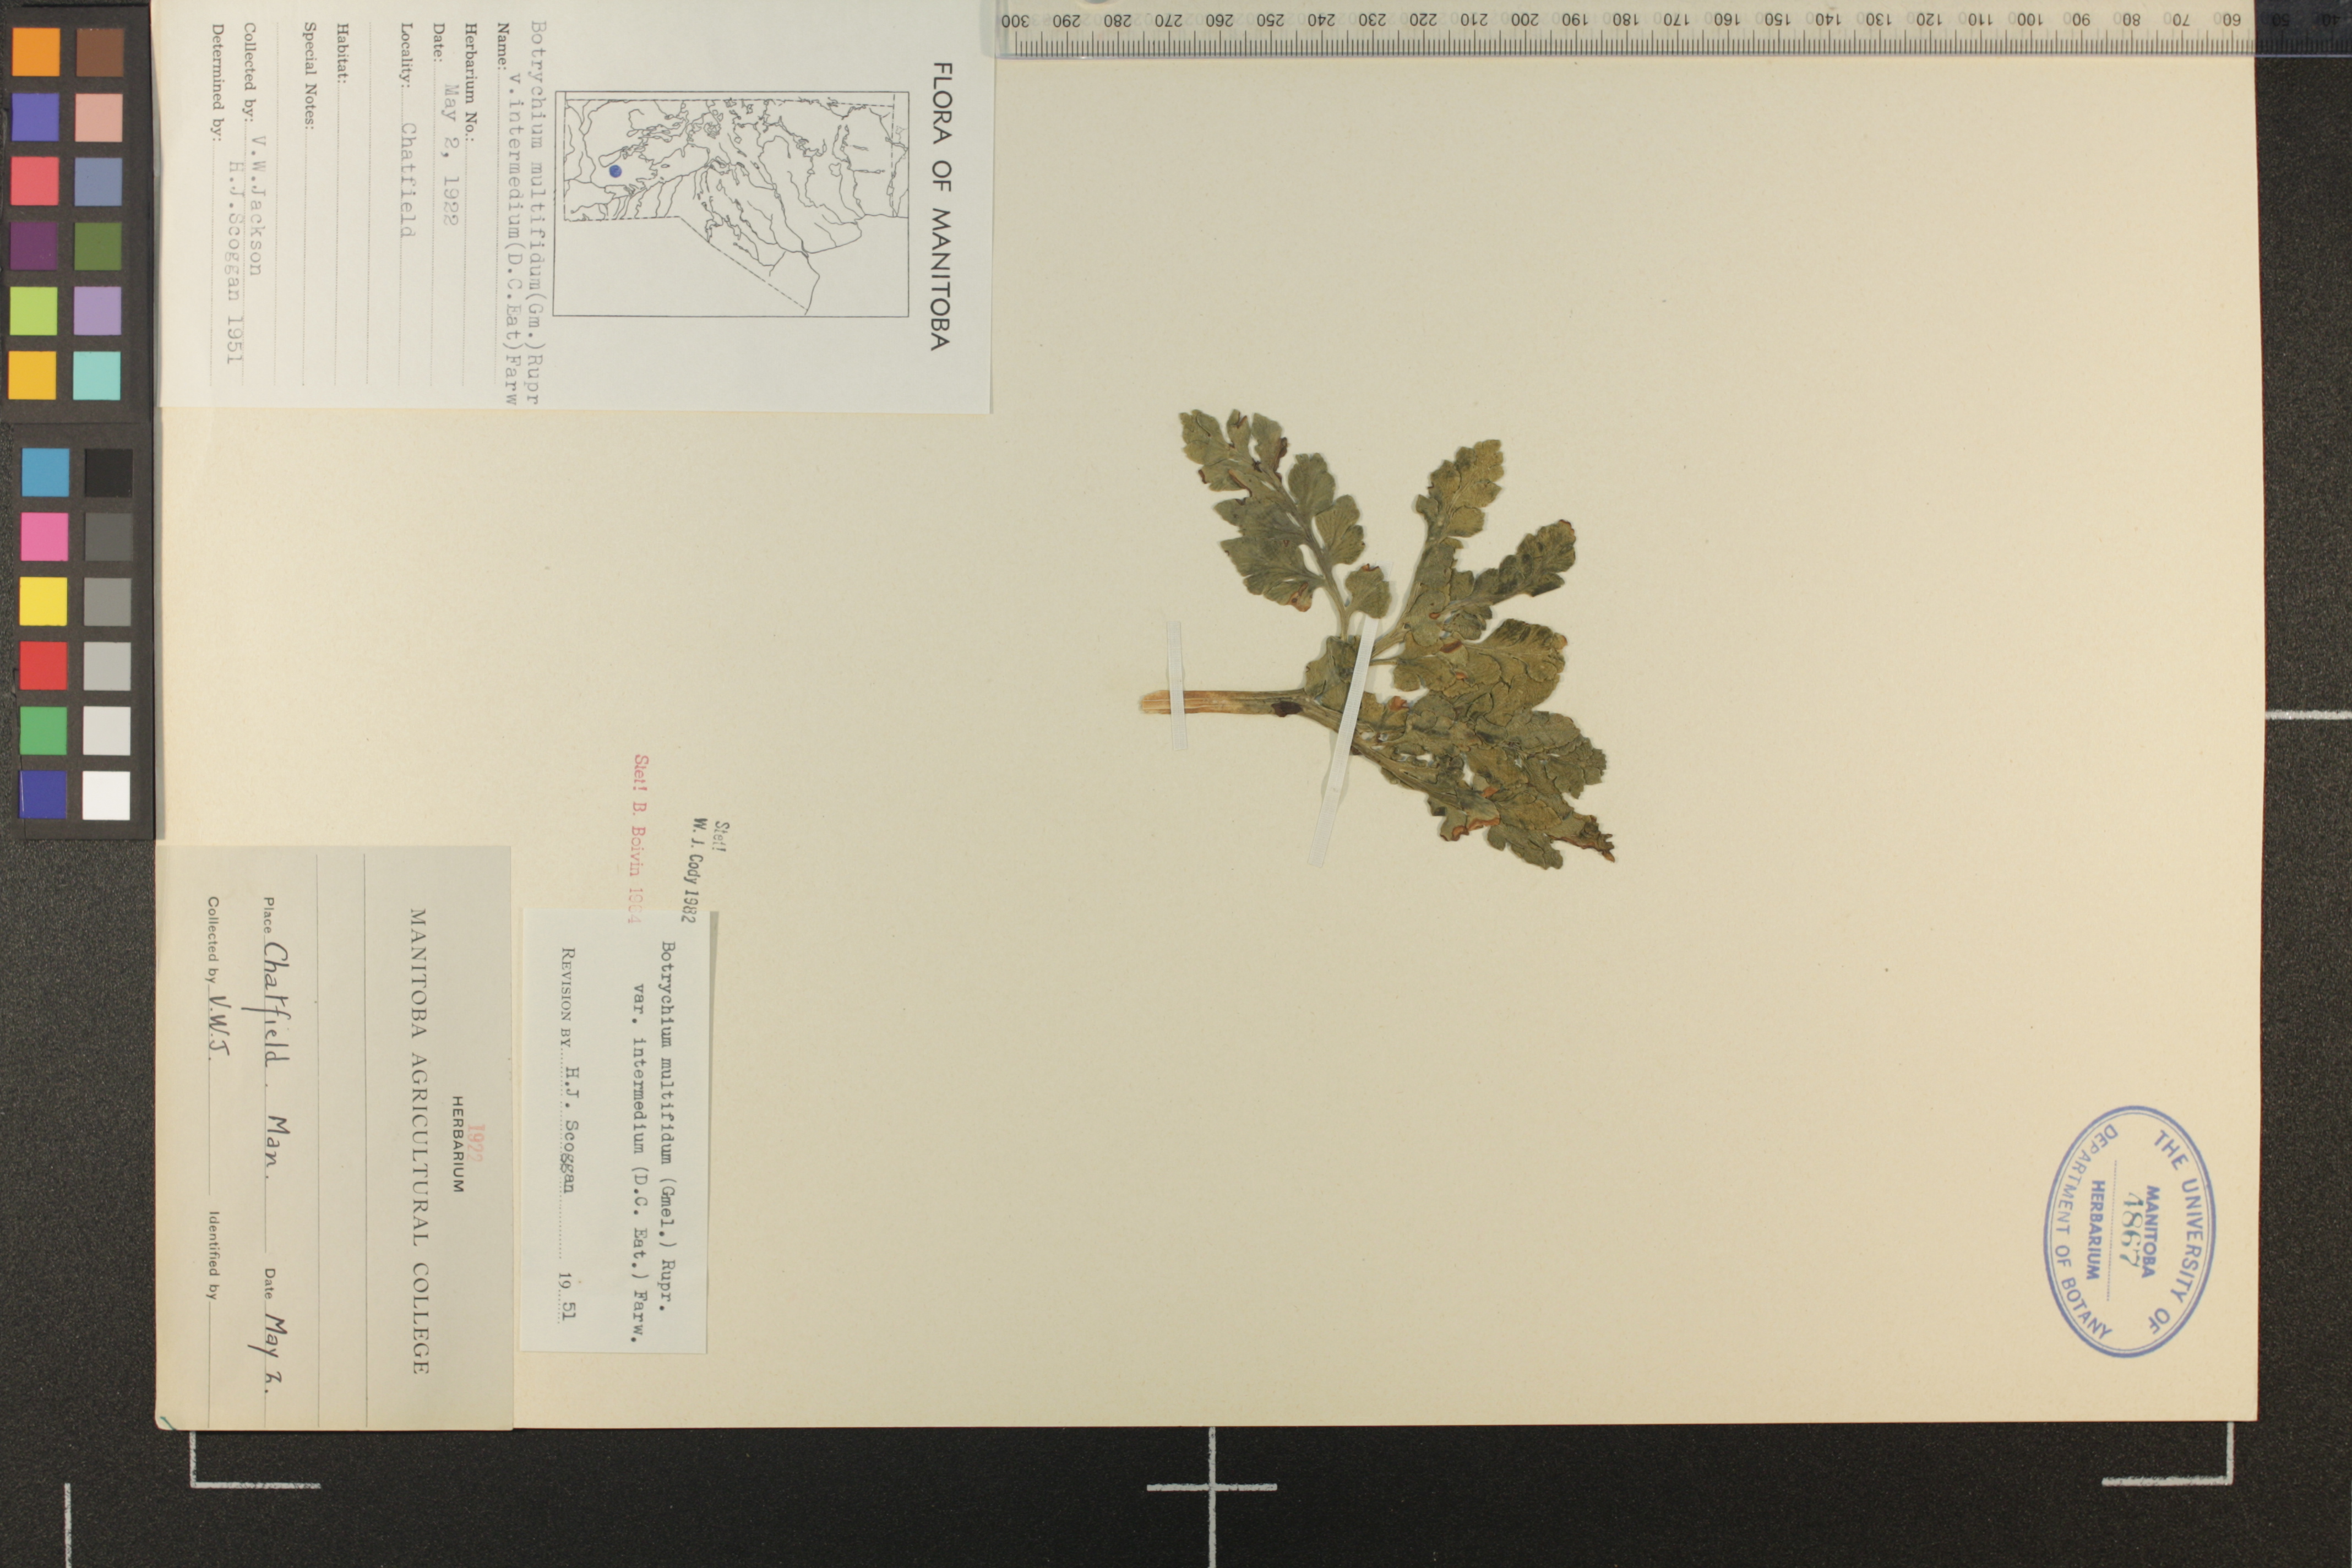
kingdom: Plantae
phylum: Tracheophyta
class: Polypodiopsida
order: Ophioglossales
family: Ophioglossaceae
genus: Sceptridium
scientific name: Sceptridium multifidum
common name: Leathery grape fern
